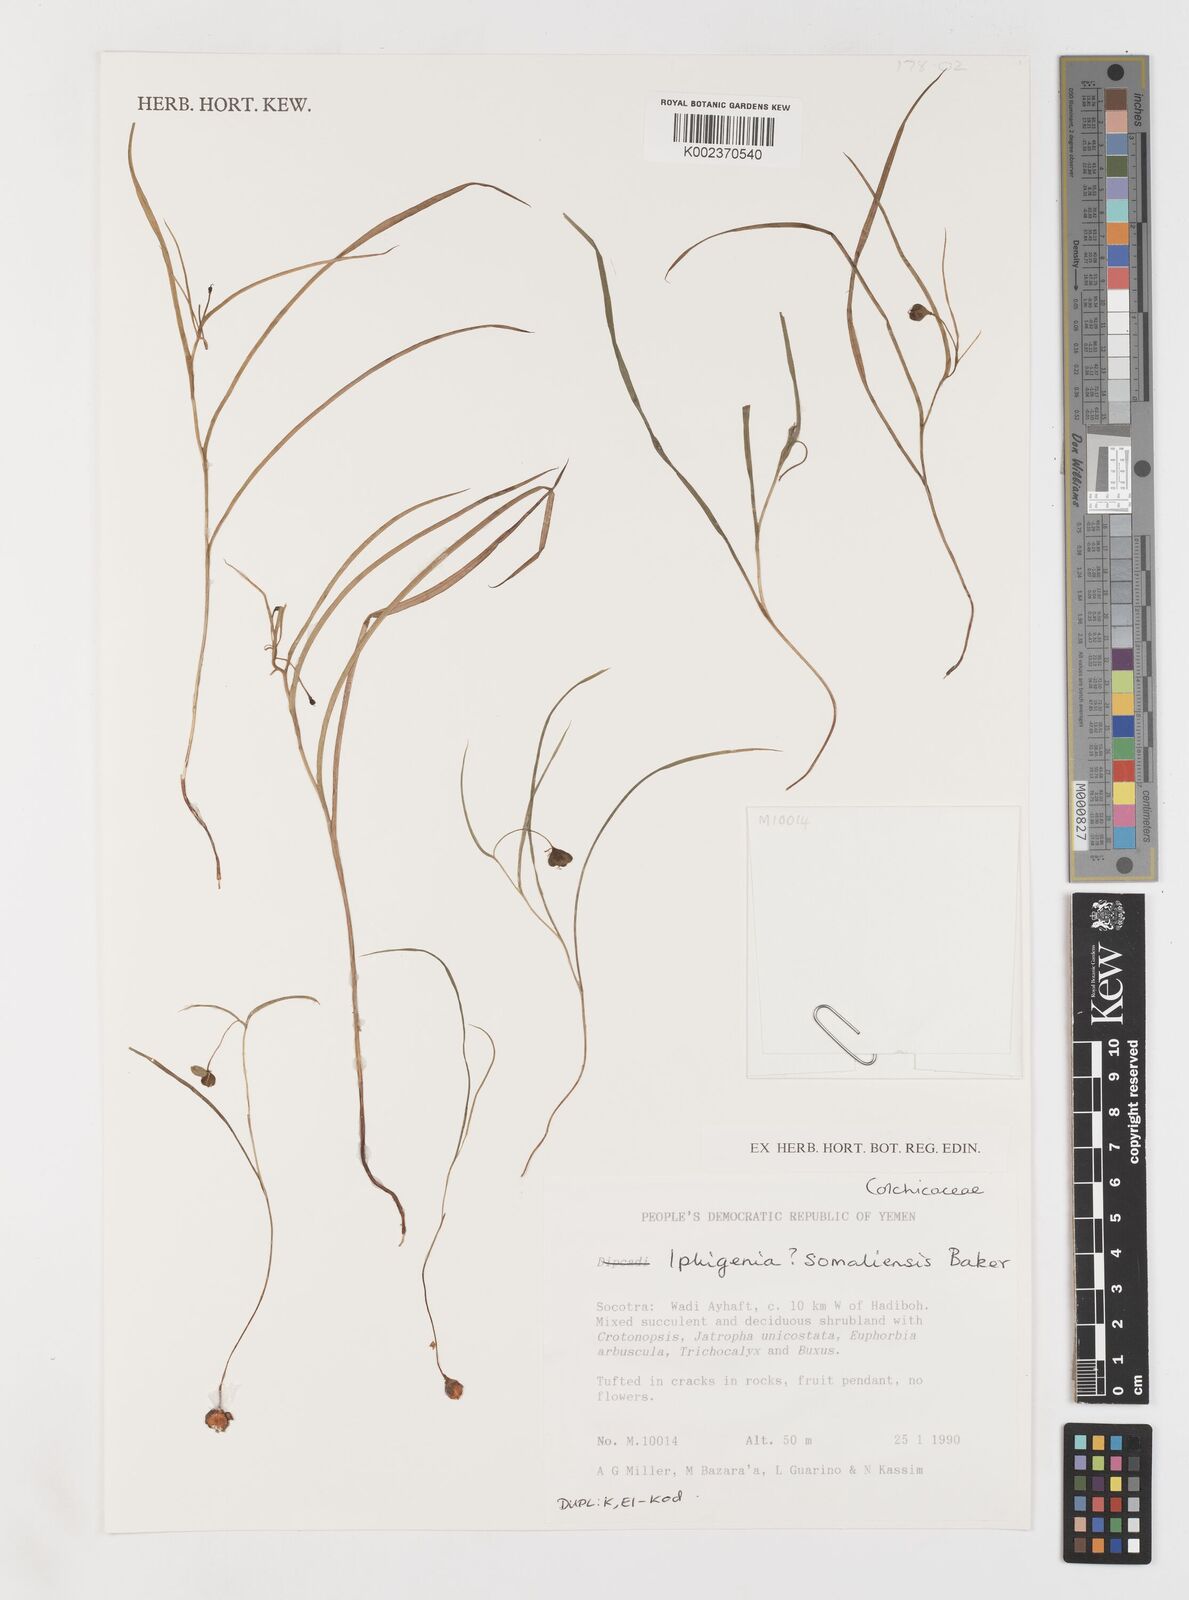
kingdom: Plantae
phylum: Tracheophyta
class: Liliopsida
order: Liliales
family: Colchicaceae
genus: Iphigenia
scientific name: Iphigenia oliveri
